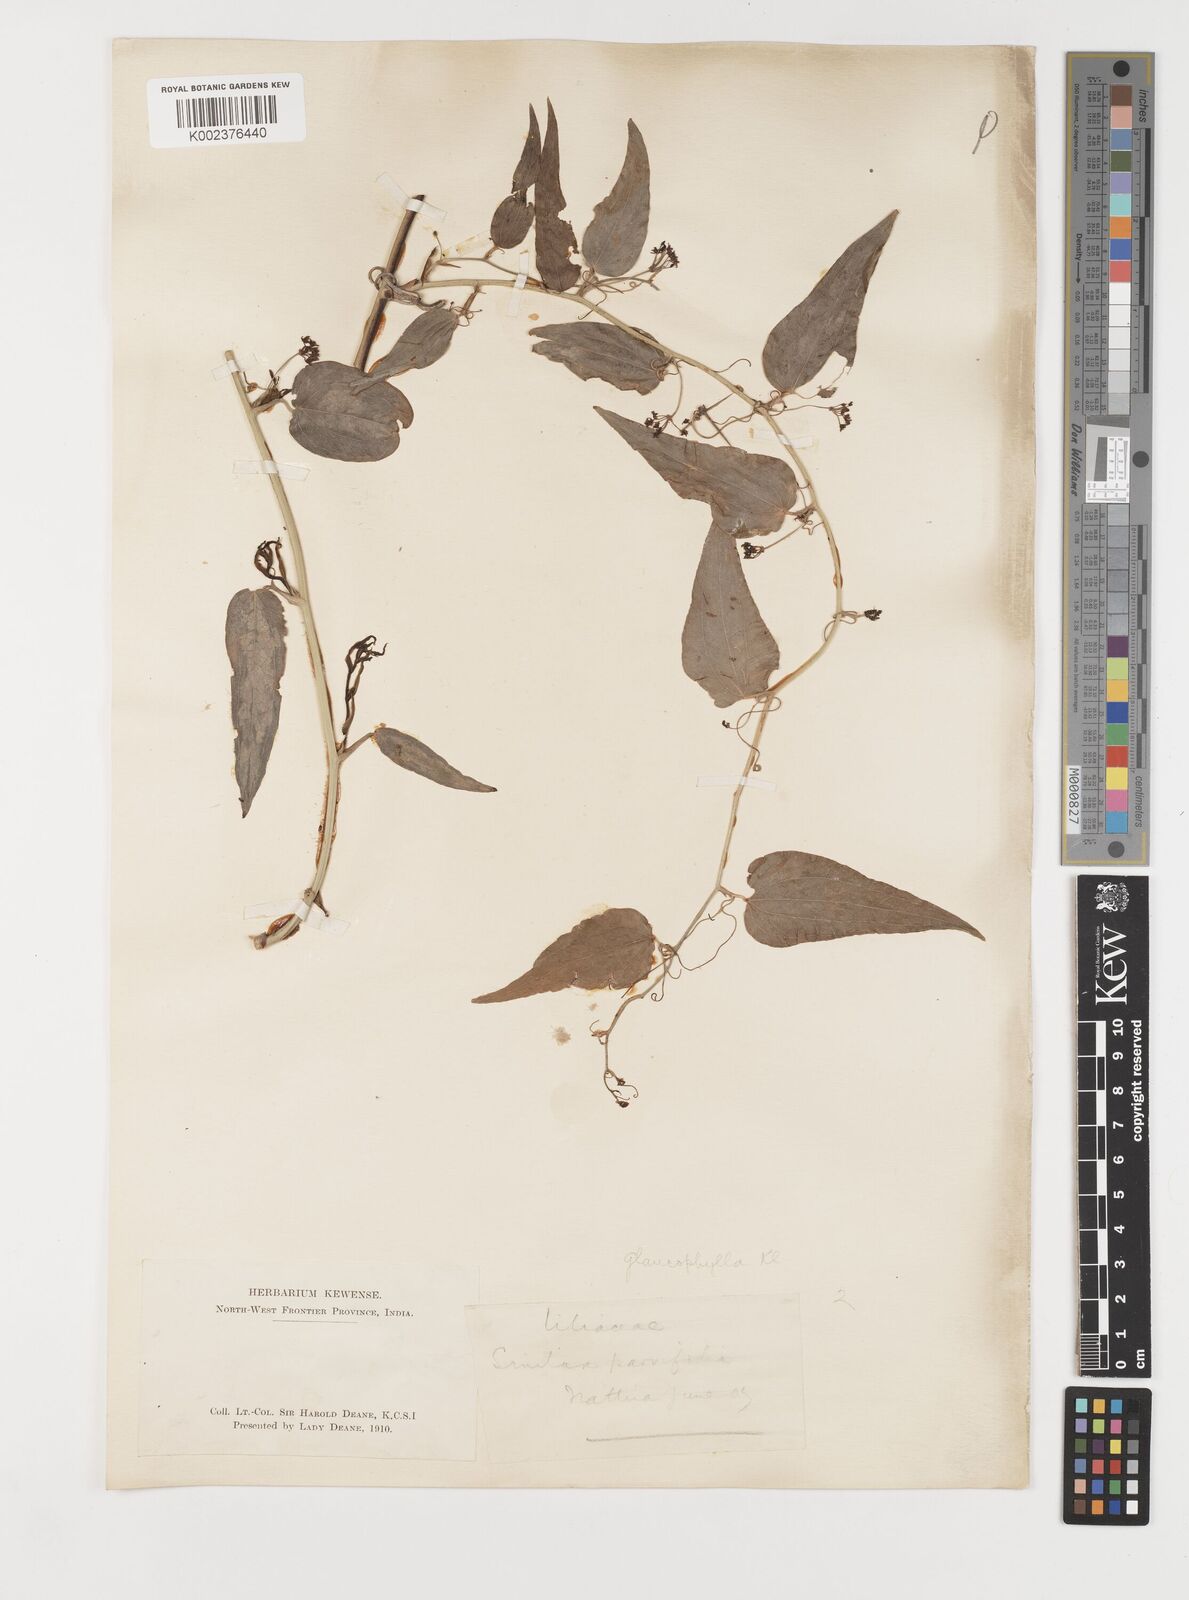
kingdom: Plantae
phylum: Tracheophyta
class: Liliopsida
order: Liliales
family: Smilacaceae
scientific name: Smilacaceae
